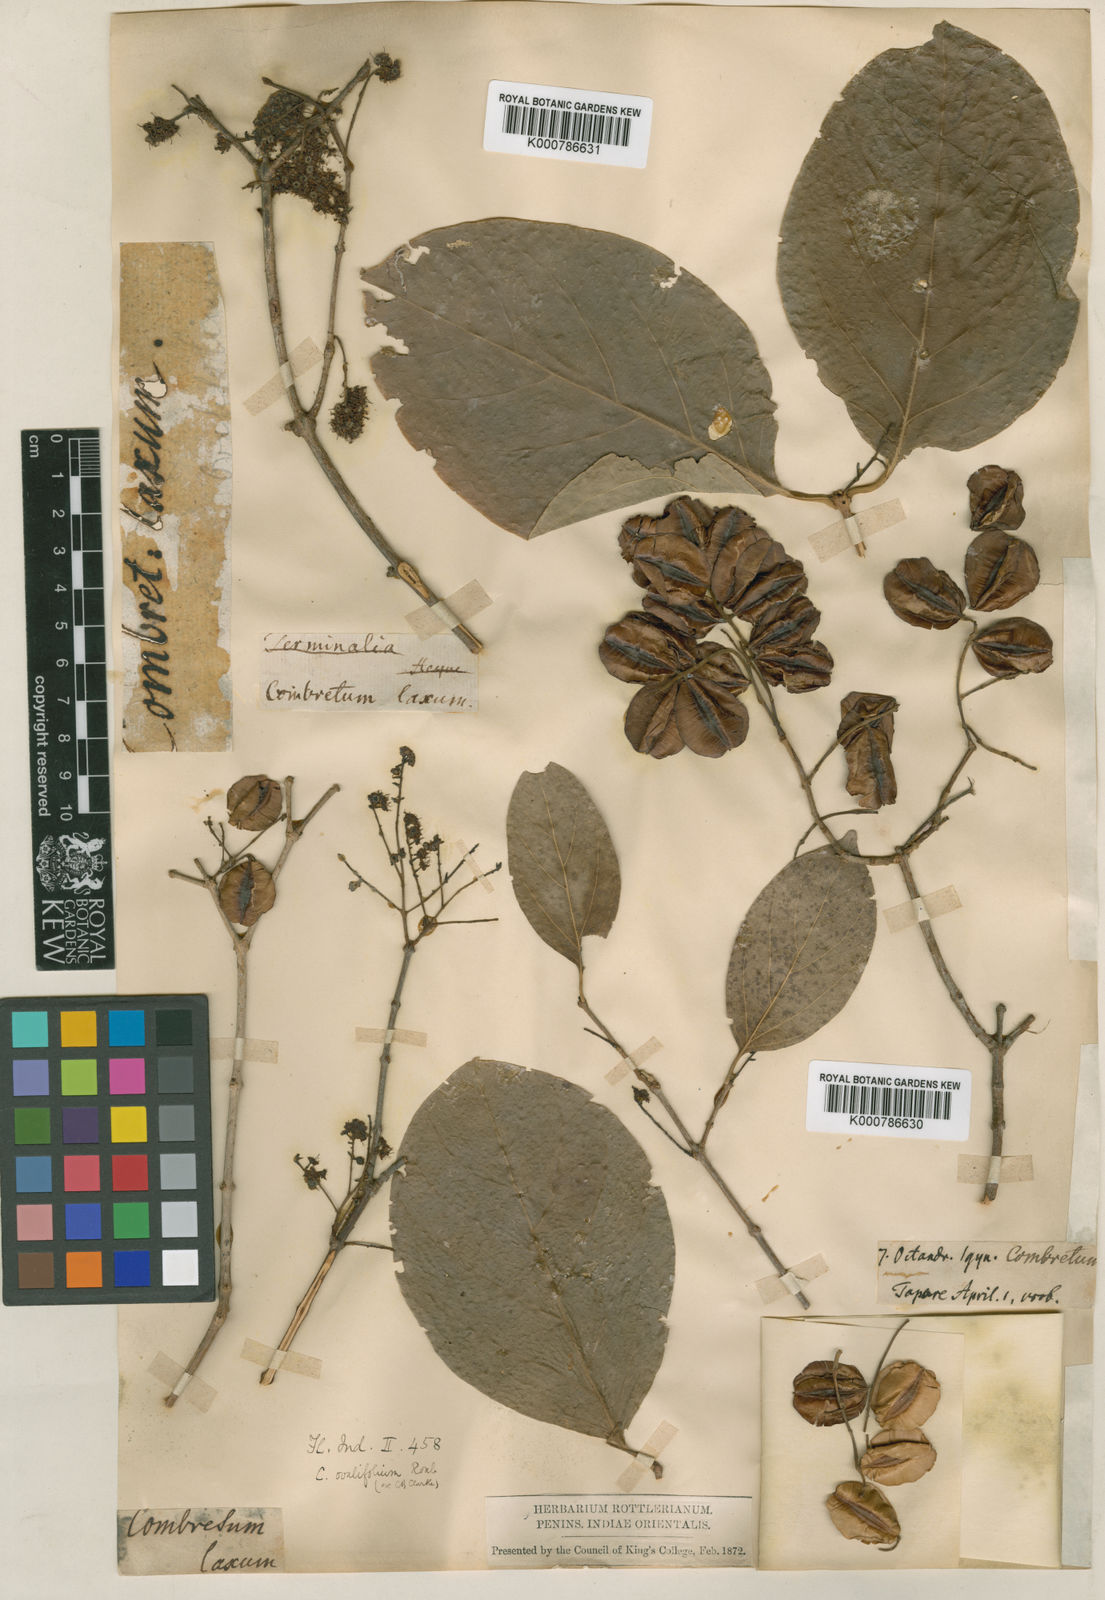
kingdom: Plantae
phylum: Tracheophyta
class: Magnoliopsida
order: Myrtales
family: Combretaceae
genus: Combretum
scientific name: Combretum
